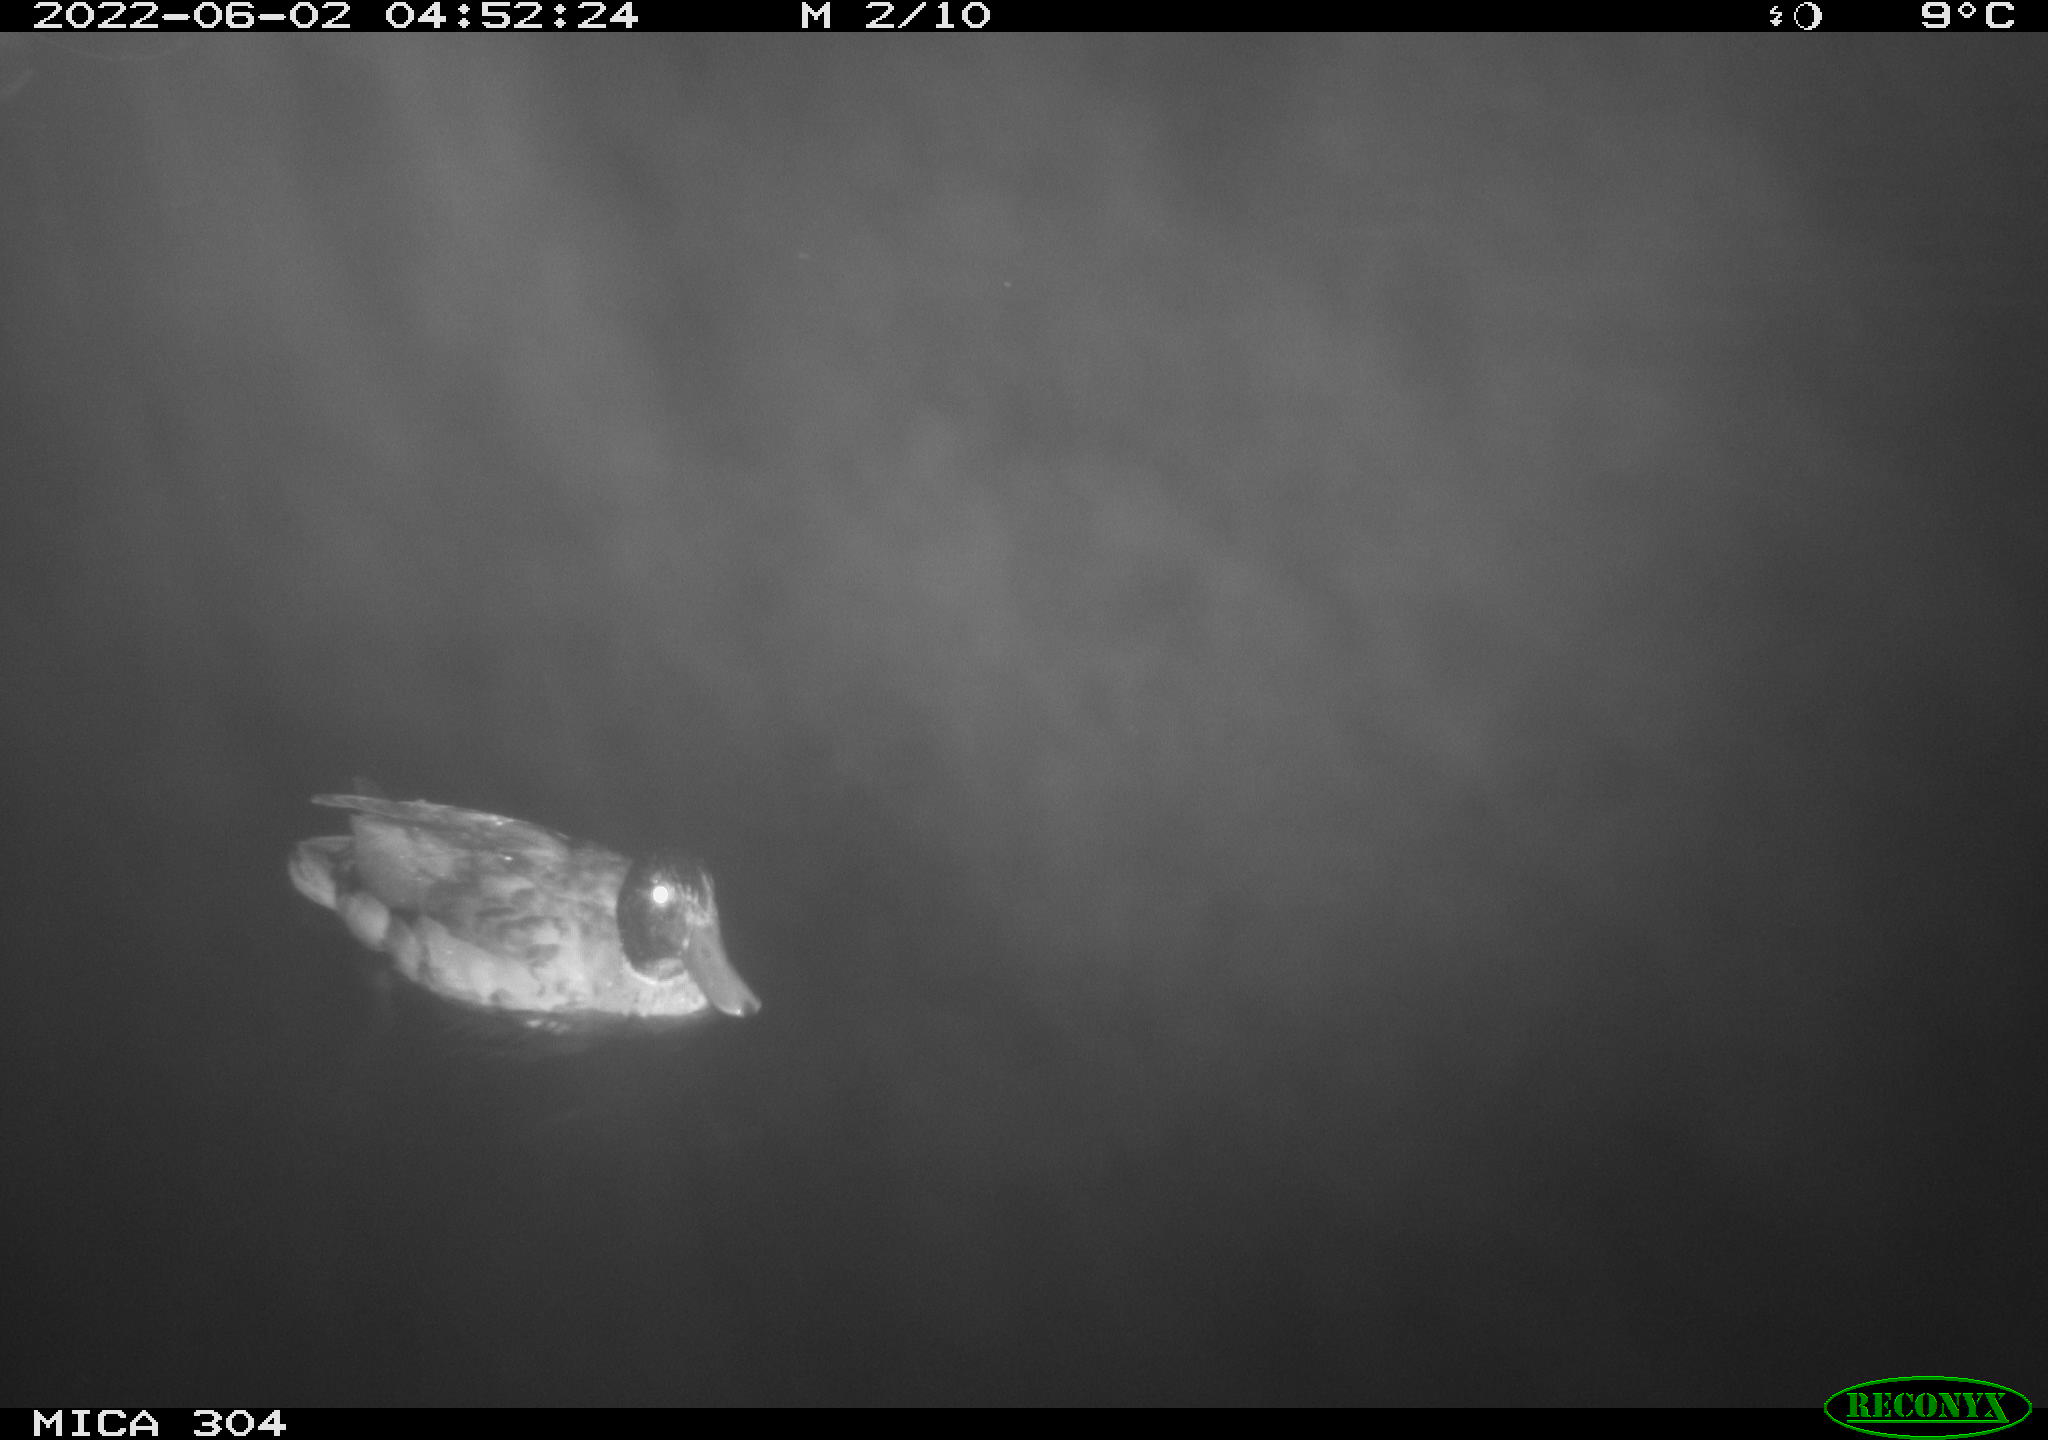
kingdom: Animalia
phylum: Chordata
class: Aves
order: Anseriformes
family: Anatidae
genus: Anas
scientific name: Anas platyrhynchos
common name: Mallard
